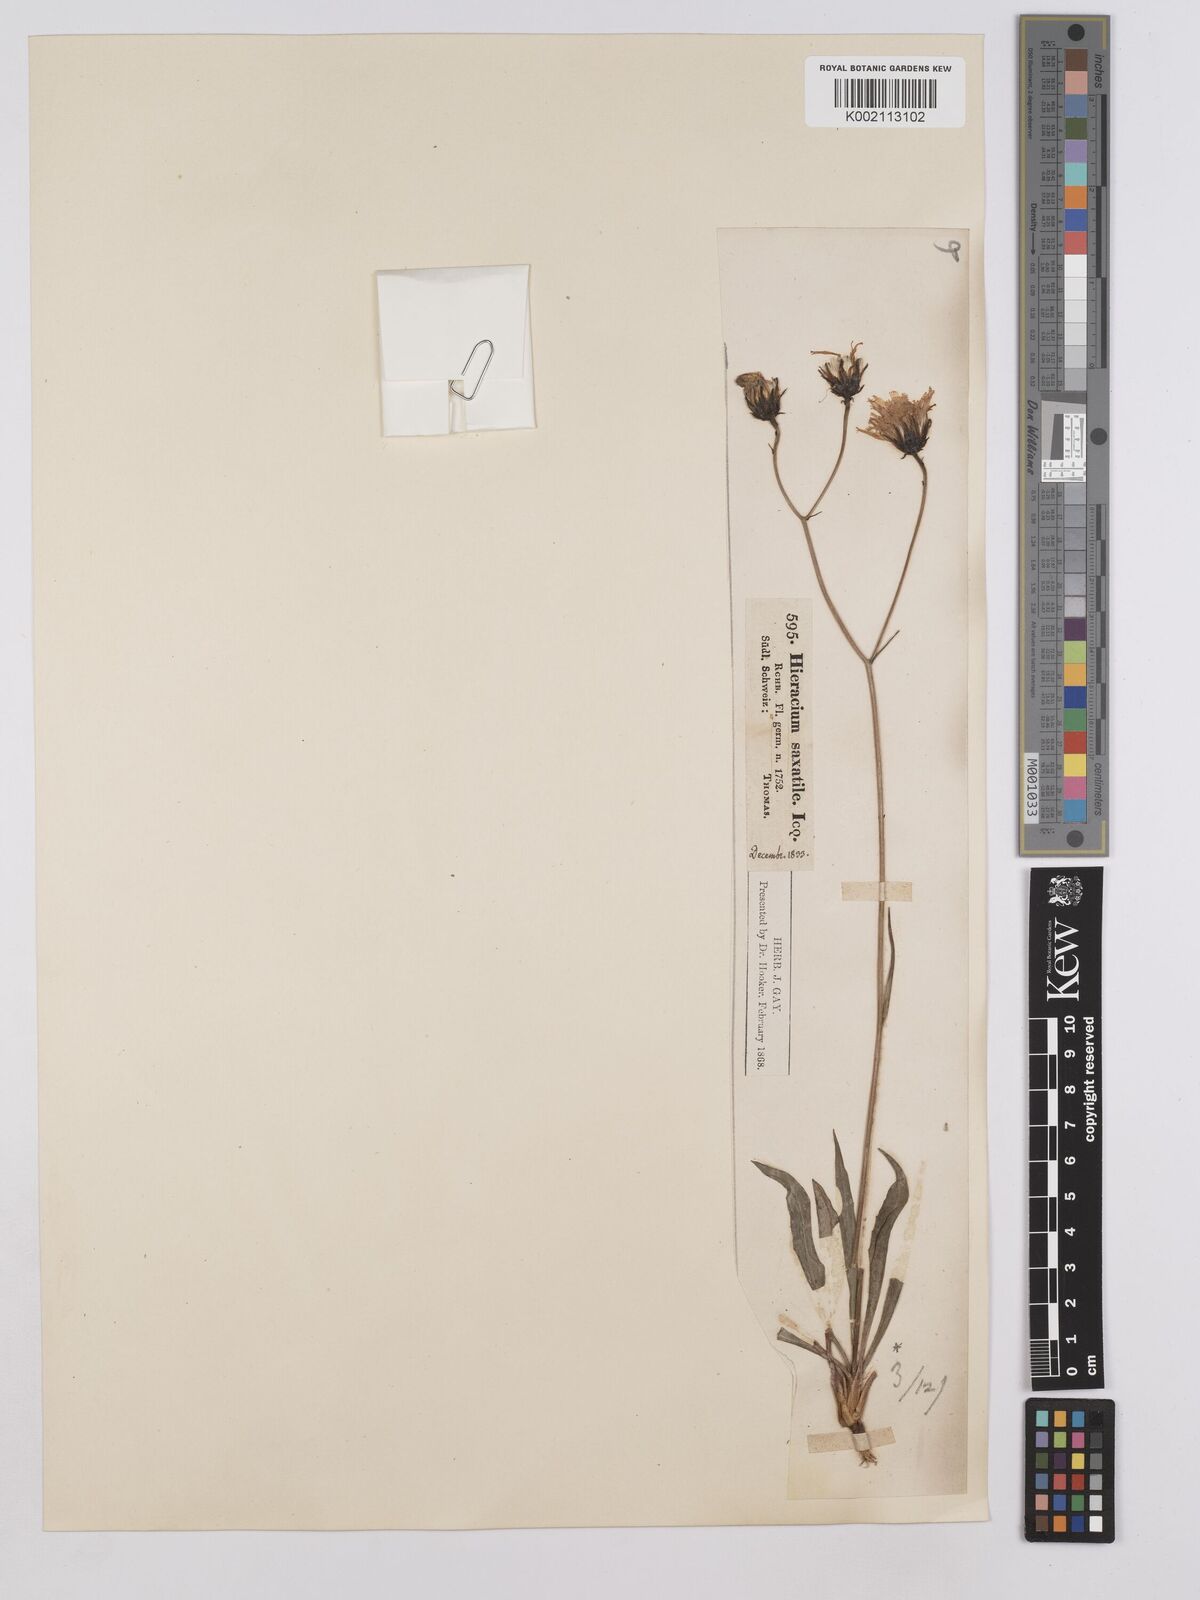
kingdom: Plantae
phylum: Tracheophyta
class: Magnoliopsida
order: Asterales
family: Asteraceae
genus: Hieracium
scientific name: Hieracium glaucum
